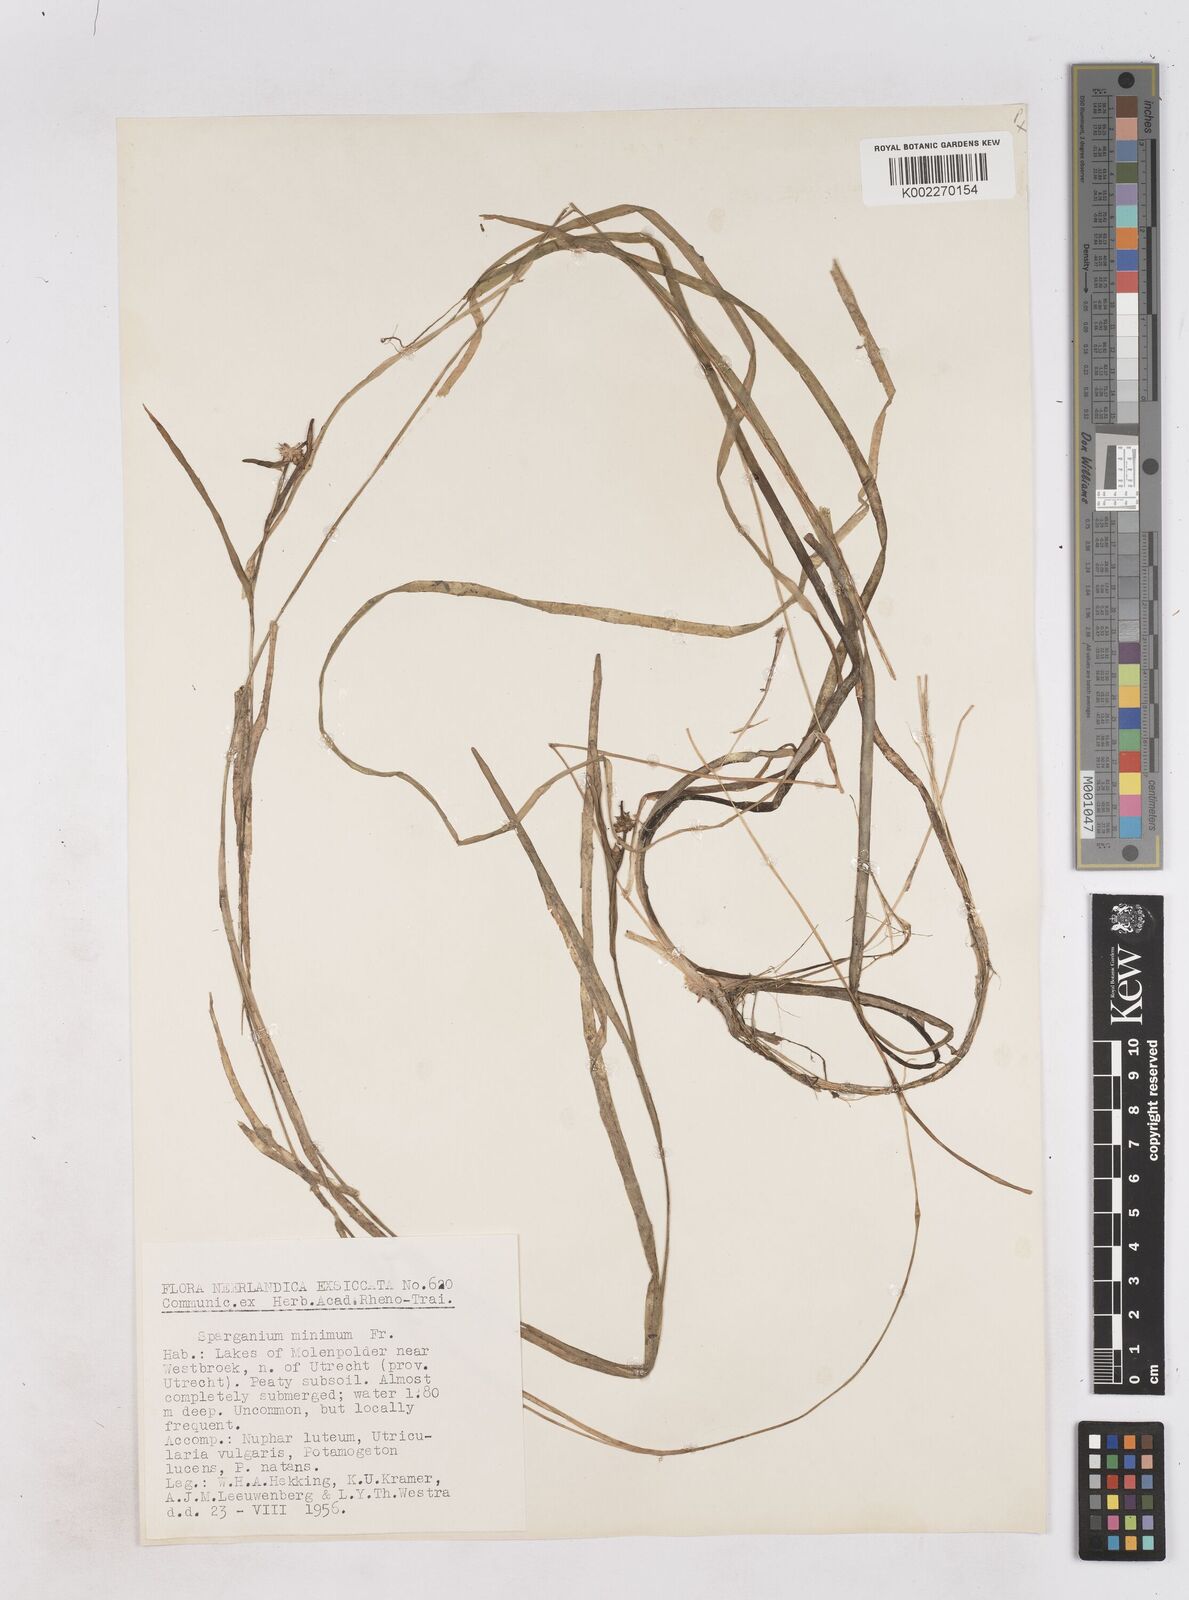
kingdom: Plantae
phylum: Tracheophyta
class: Liliopsida
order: Poales
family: Typhaceae
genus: Sparganium
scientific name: Sparganium natans
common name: Least bur-reed
